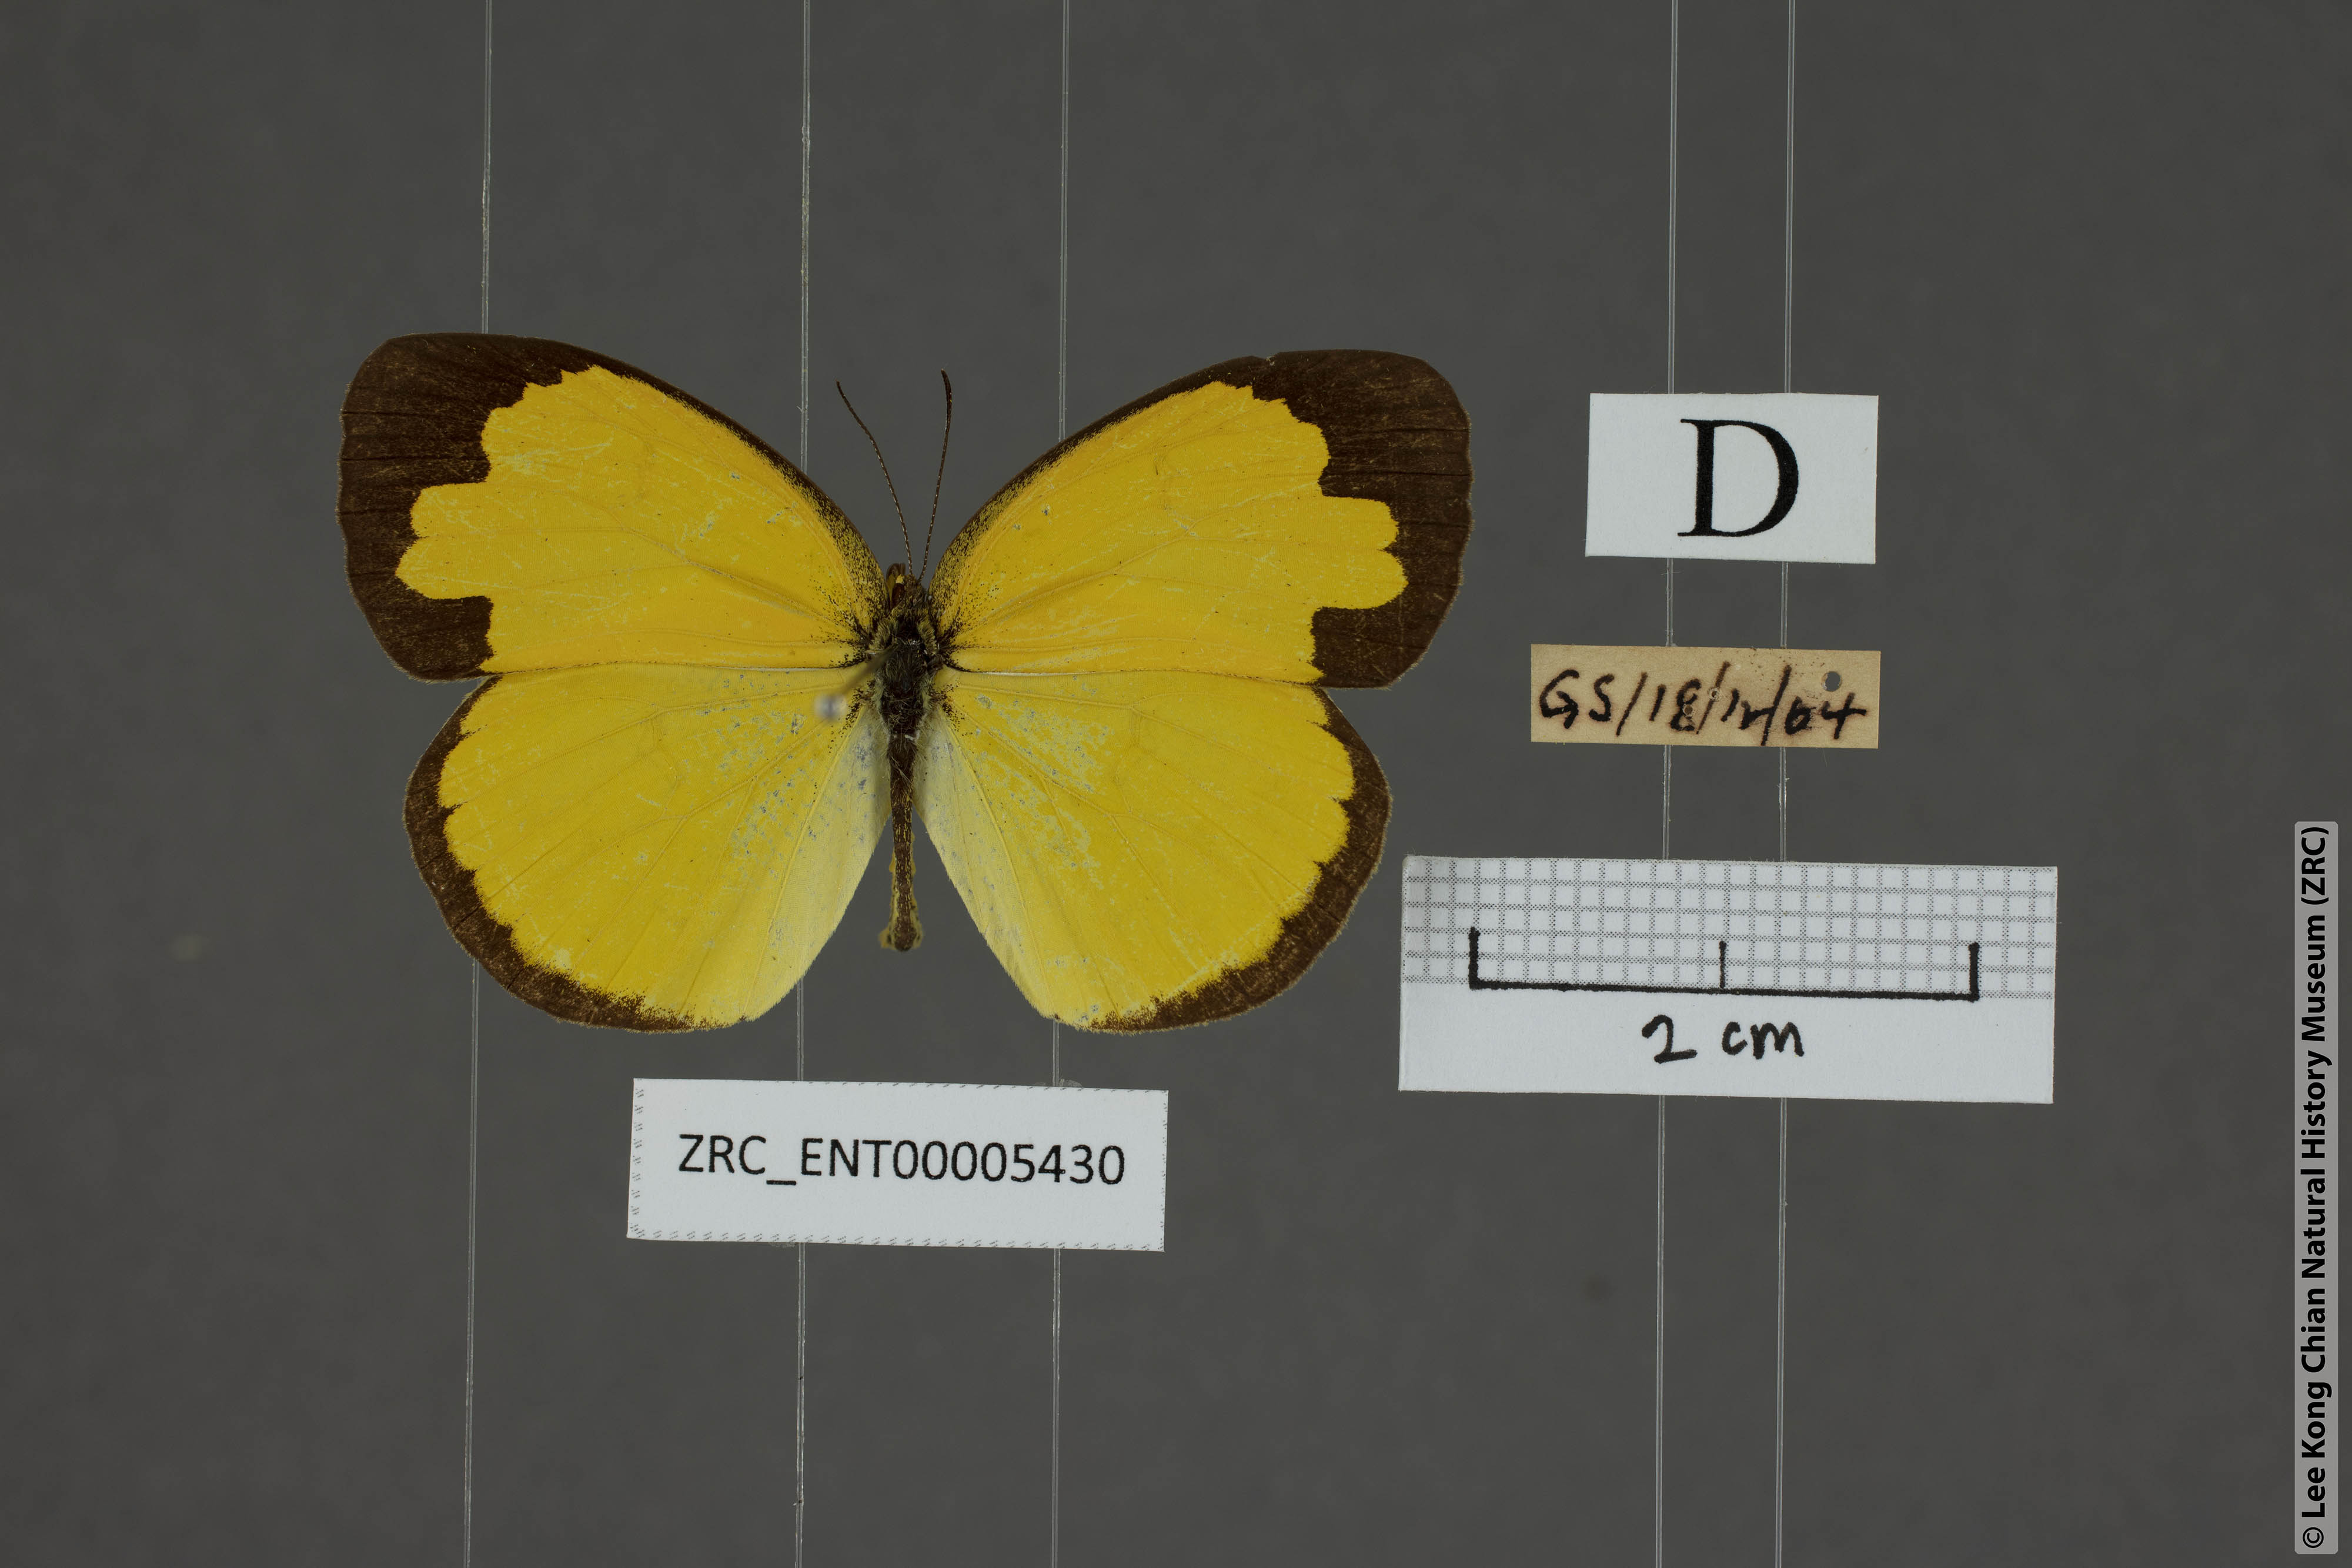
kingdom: Animalia
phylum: Arthropoda
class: Insecta
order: Lepidoptera
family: Pieridae
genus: Eurema
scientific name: Eurema blanda
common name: Three-spot grass yellow
